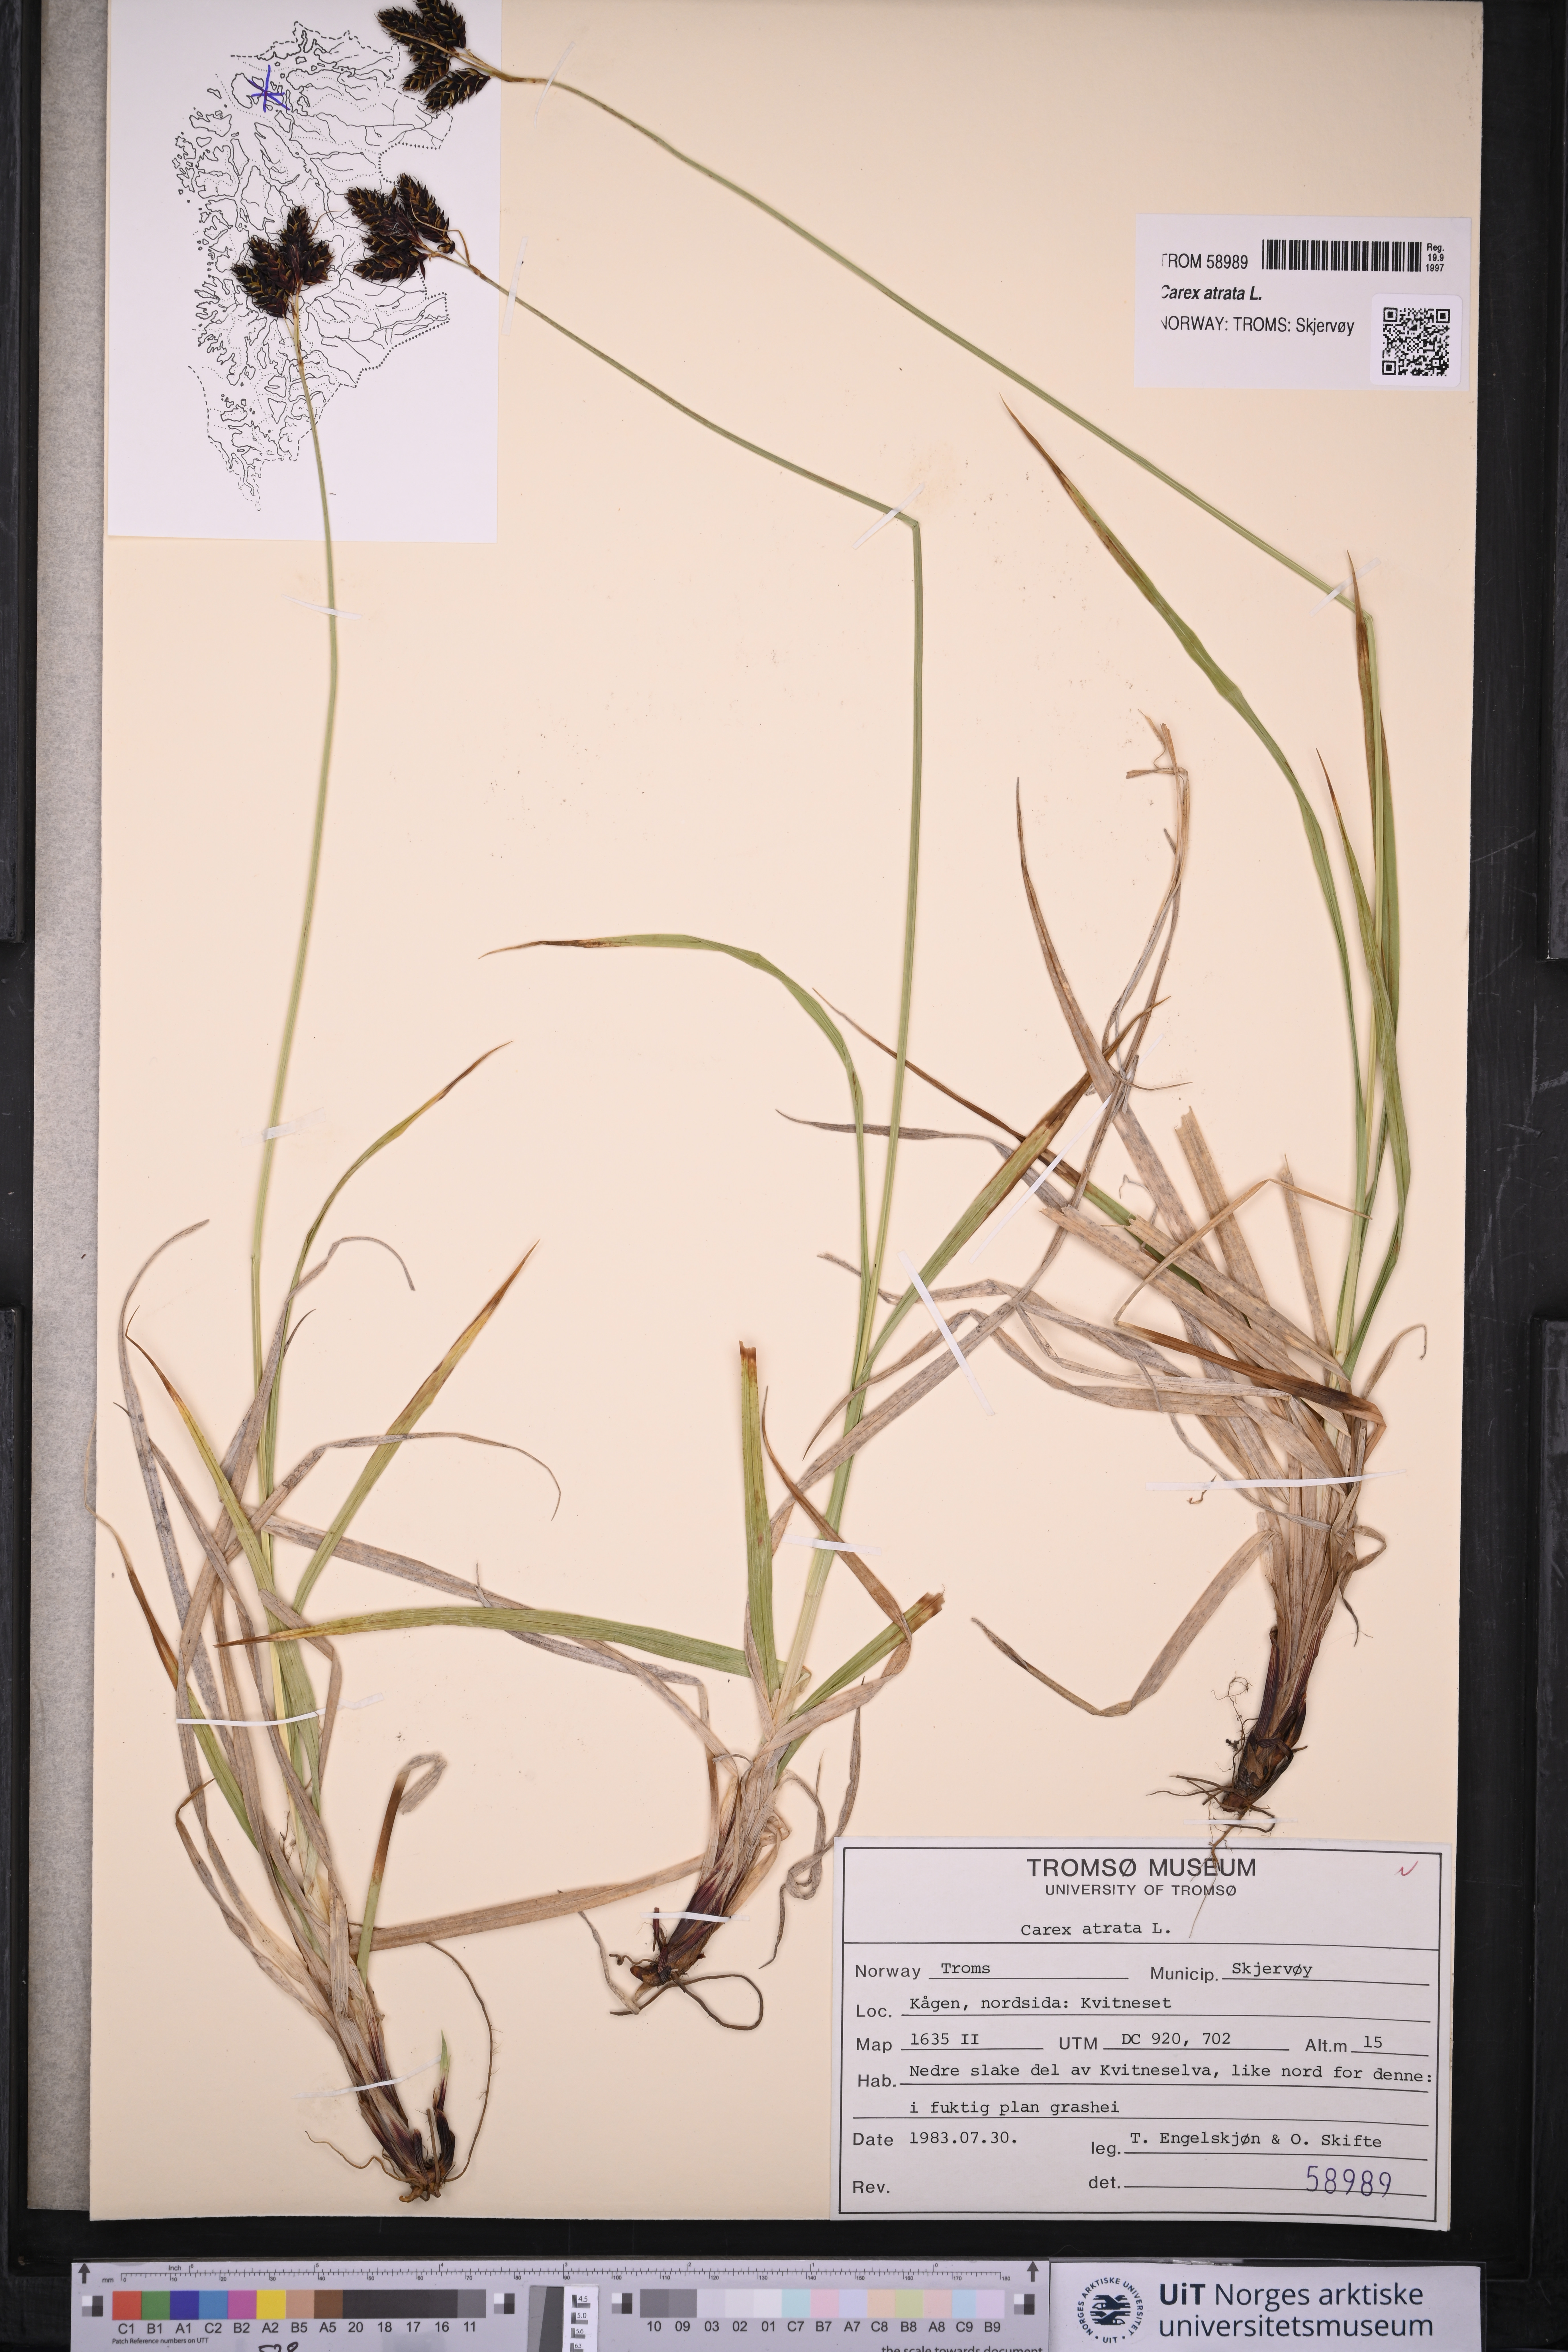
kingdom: Plantae
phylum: Tracheophyta
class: Liliopsida
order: Poales
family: Cyperaceae
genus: Carex
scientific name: Carex atrata
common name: Black alpine sedge
